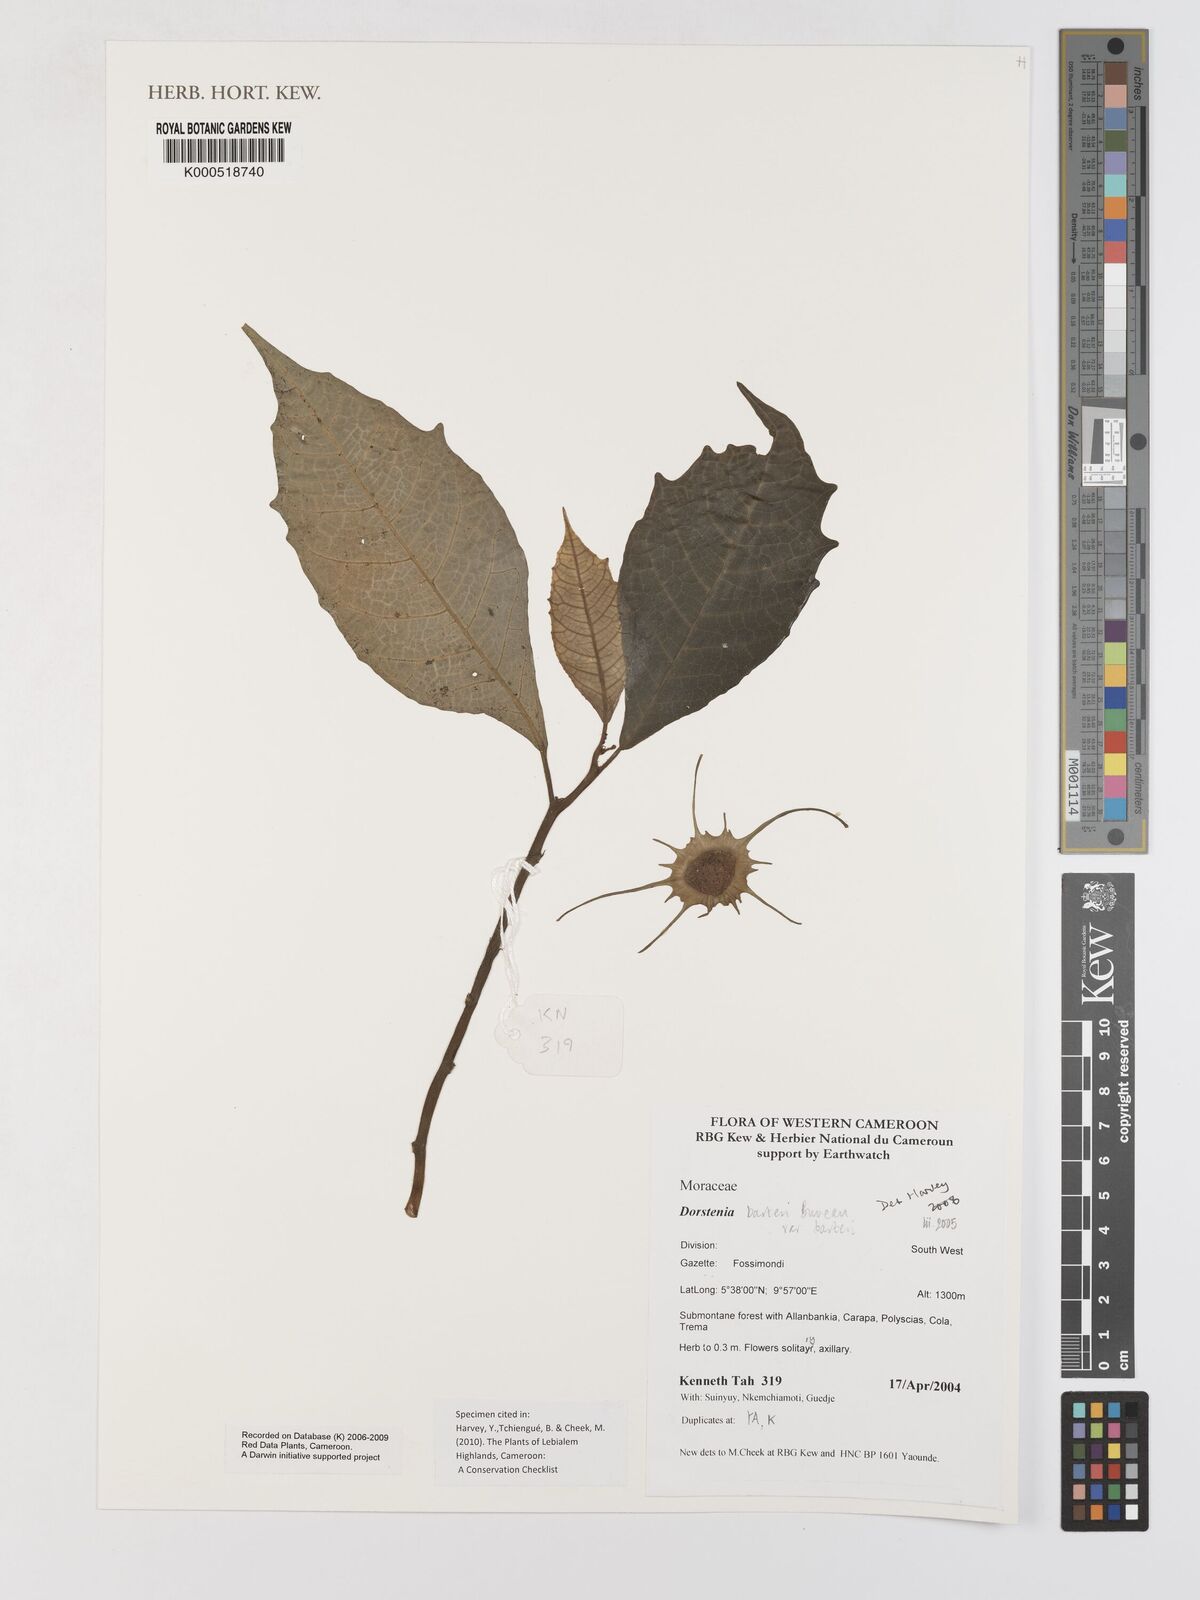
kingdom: Plantae
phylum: Tracheophyta
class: Magnoliopsida
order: Rosales
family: Moraceae
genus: Dorstenia
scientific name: Dorstenia barteri
